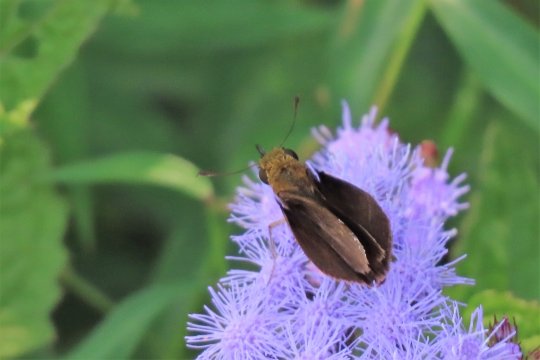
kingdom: Animalia
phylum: Arthropoda
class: Insecta
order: Lepidoptera
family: Hesperiidae
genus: Euphyes
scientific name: Euphyes vestris
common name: Dun Skipper
